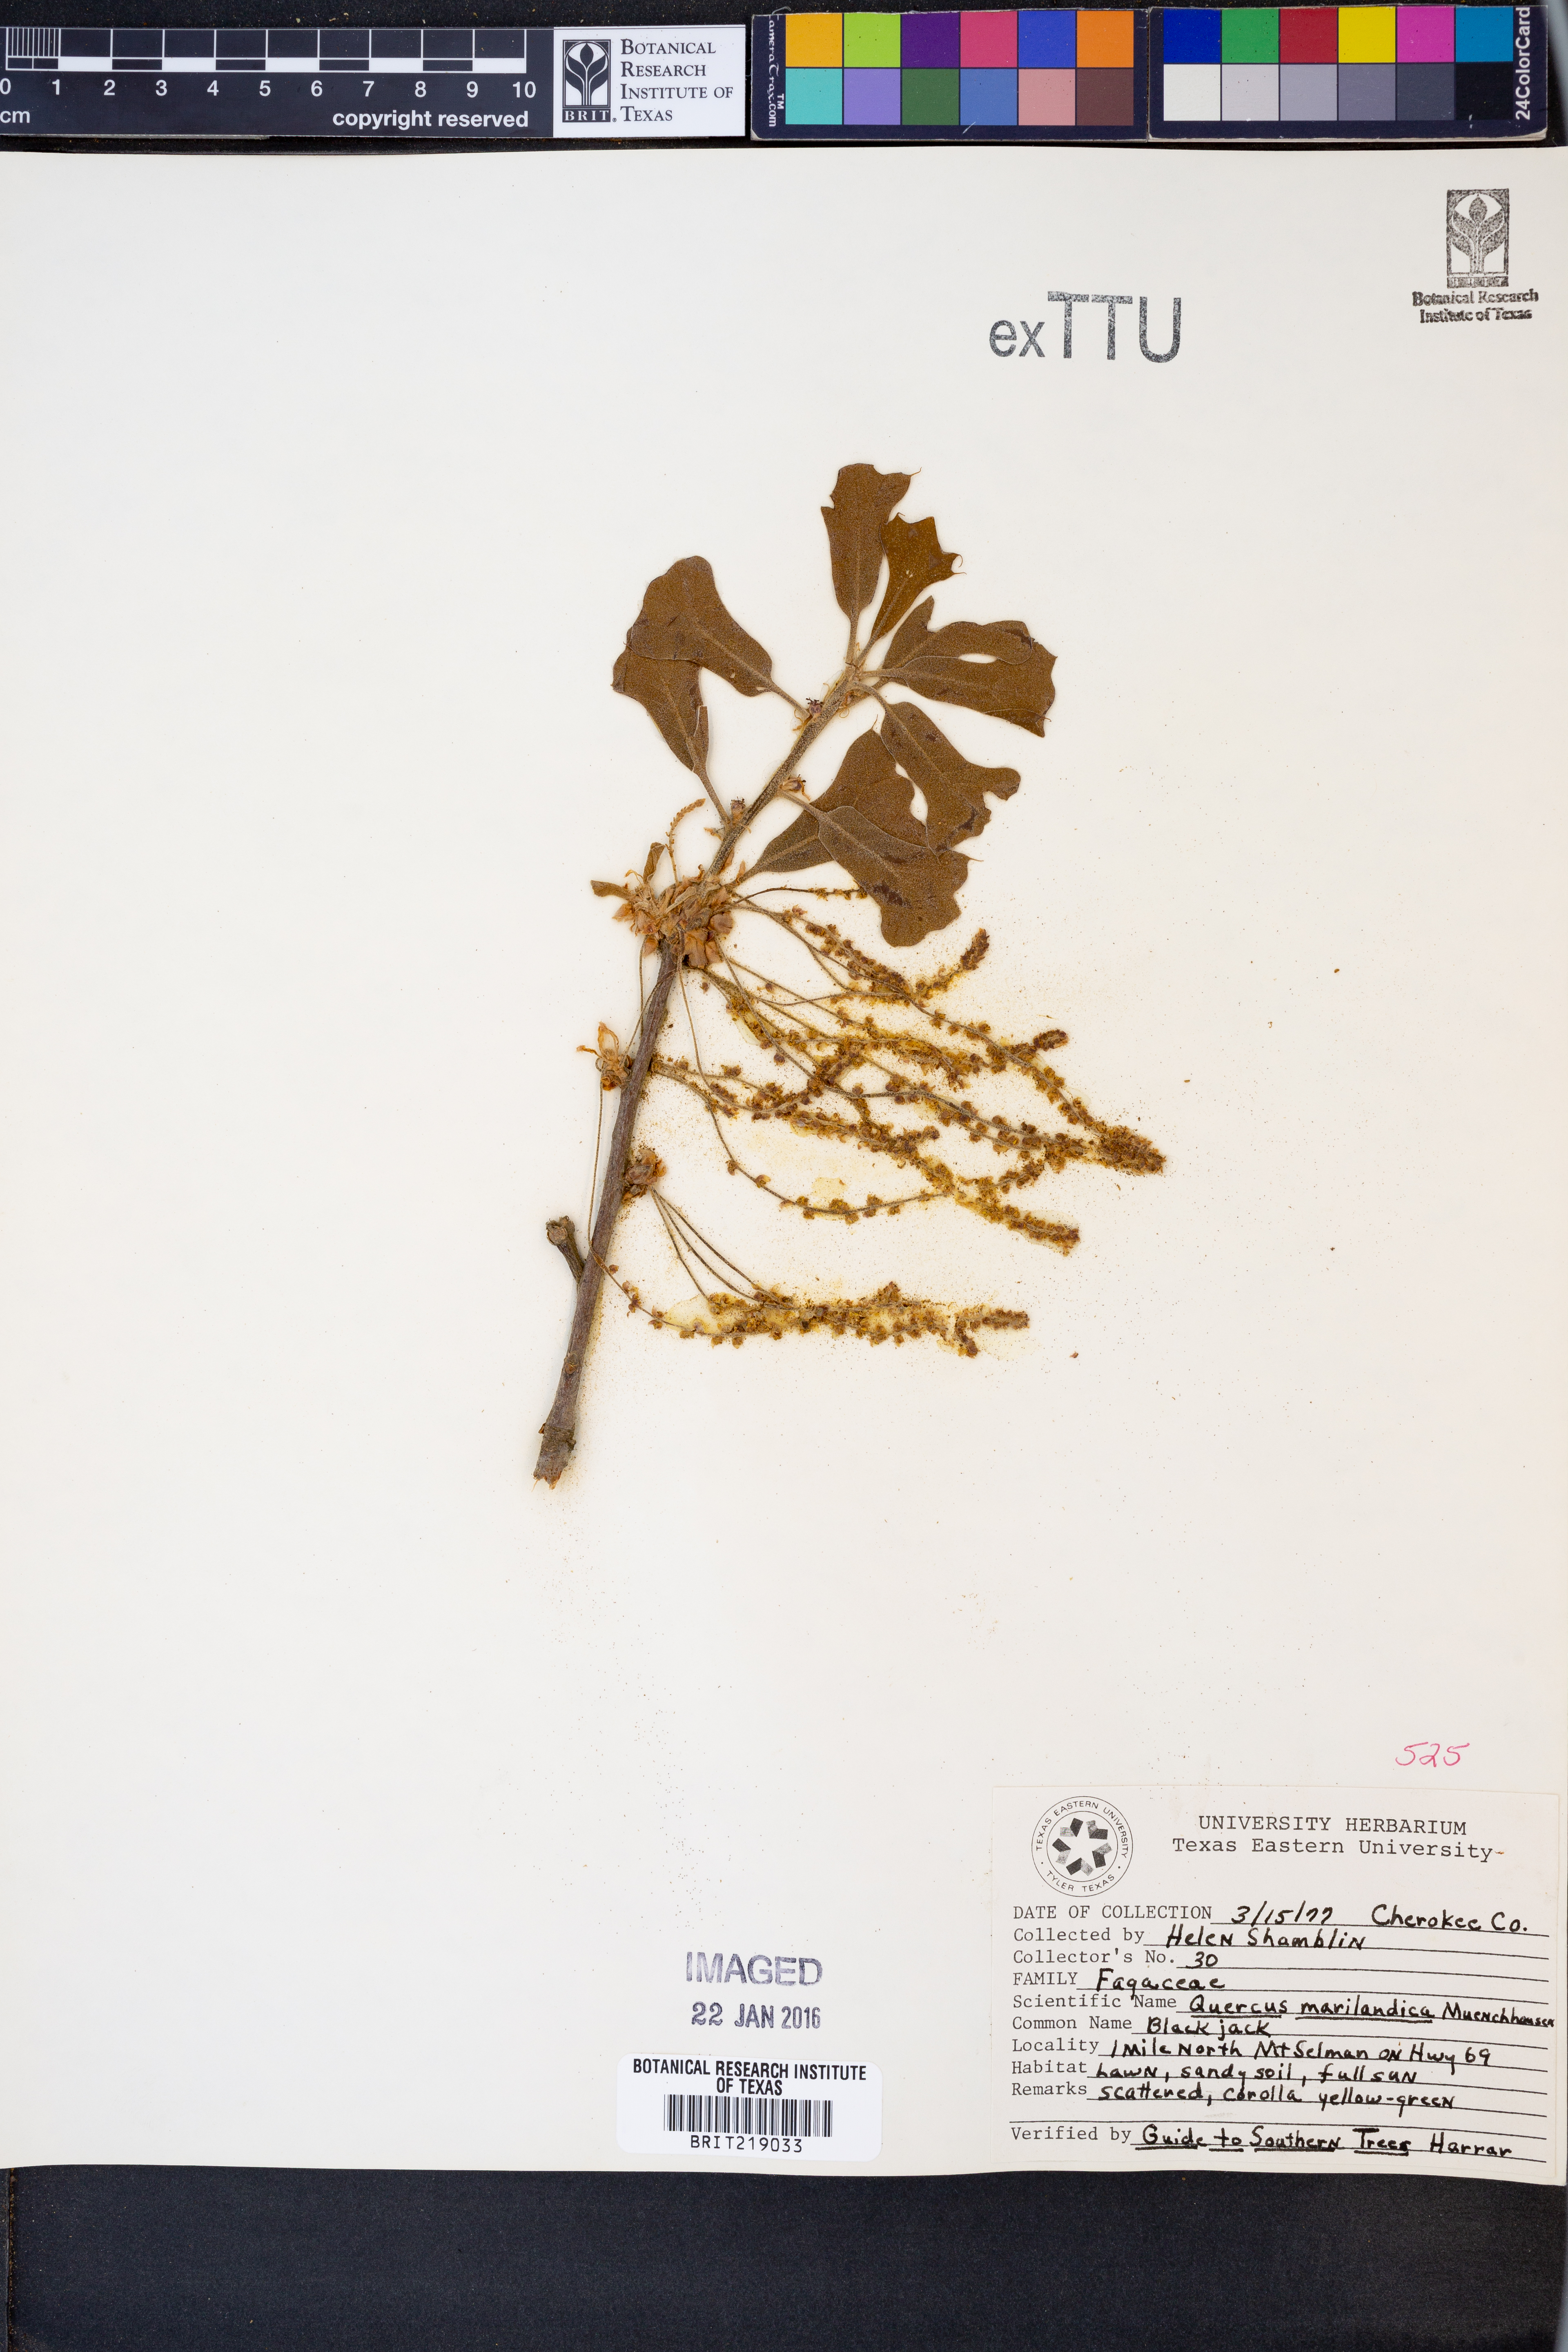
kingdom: Plantae
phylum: Tracheophyta
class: Magnoliopsida
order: Fagales
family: Fagaceae
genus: Quercus
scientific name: Quercus marilandica
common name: Blackjack oak
